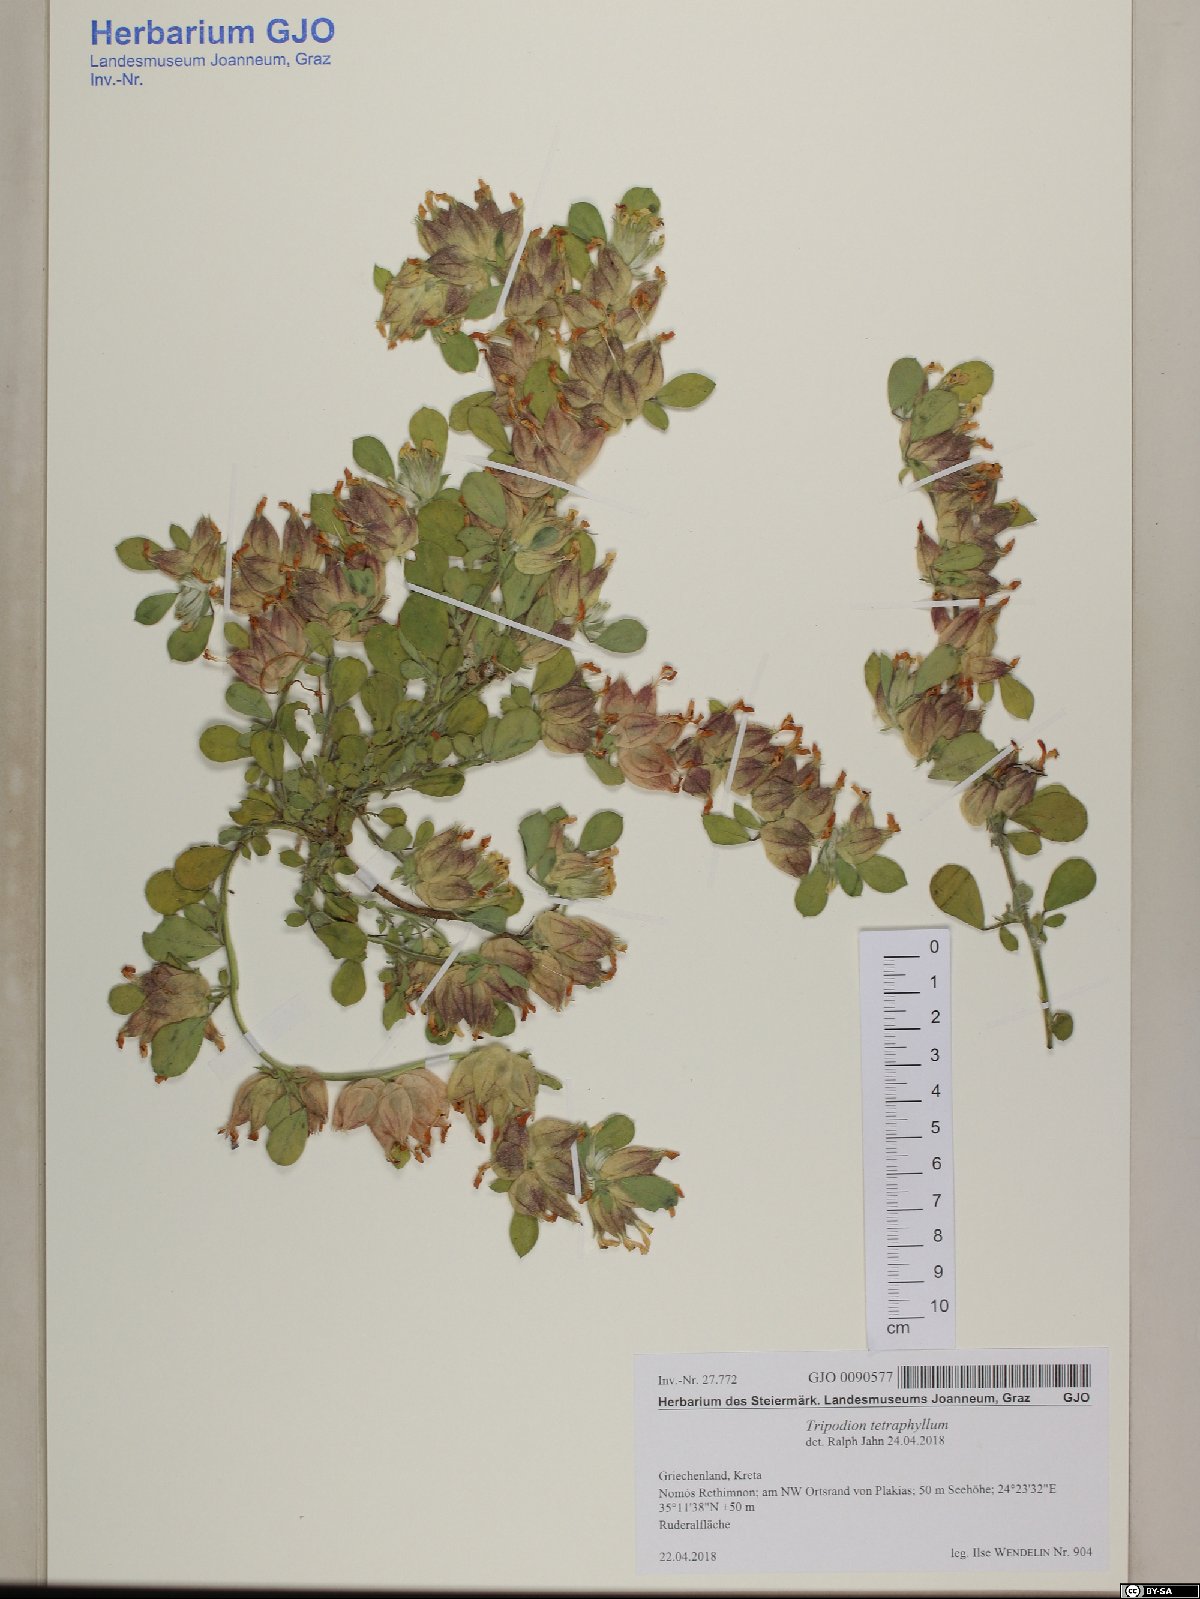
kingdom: Plantae
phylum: Tracheophyta
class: Magnoliopsida
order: Fabales
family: Fabaceae
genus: Tripodion
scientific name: Tripodion tetraphyllum
